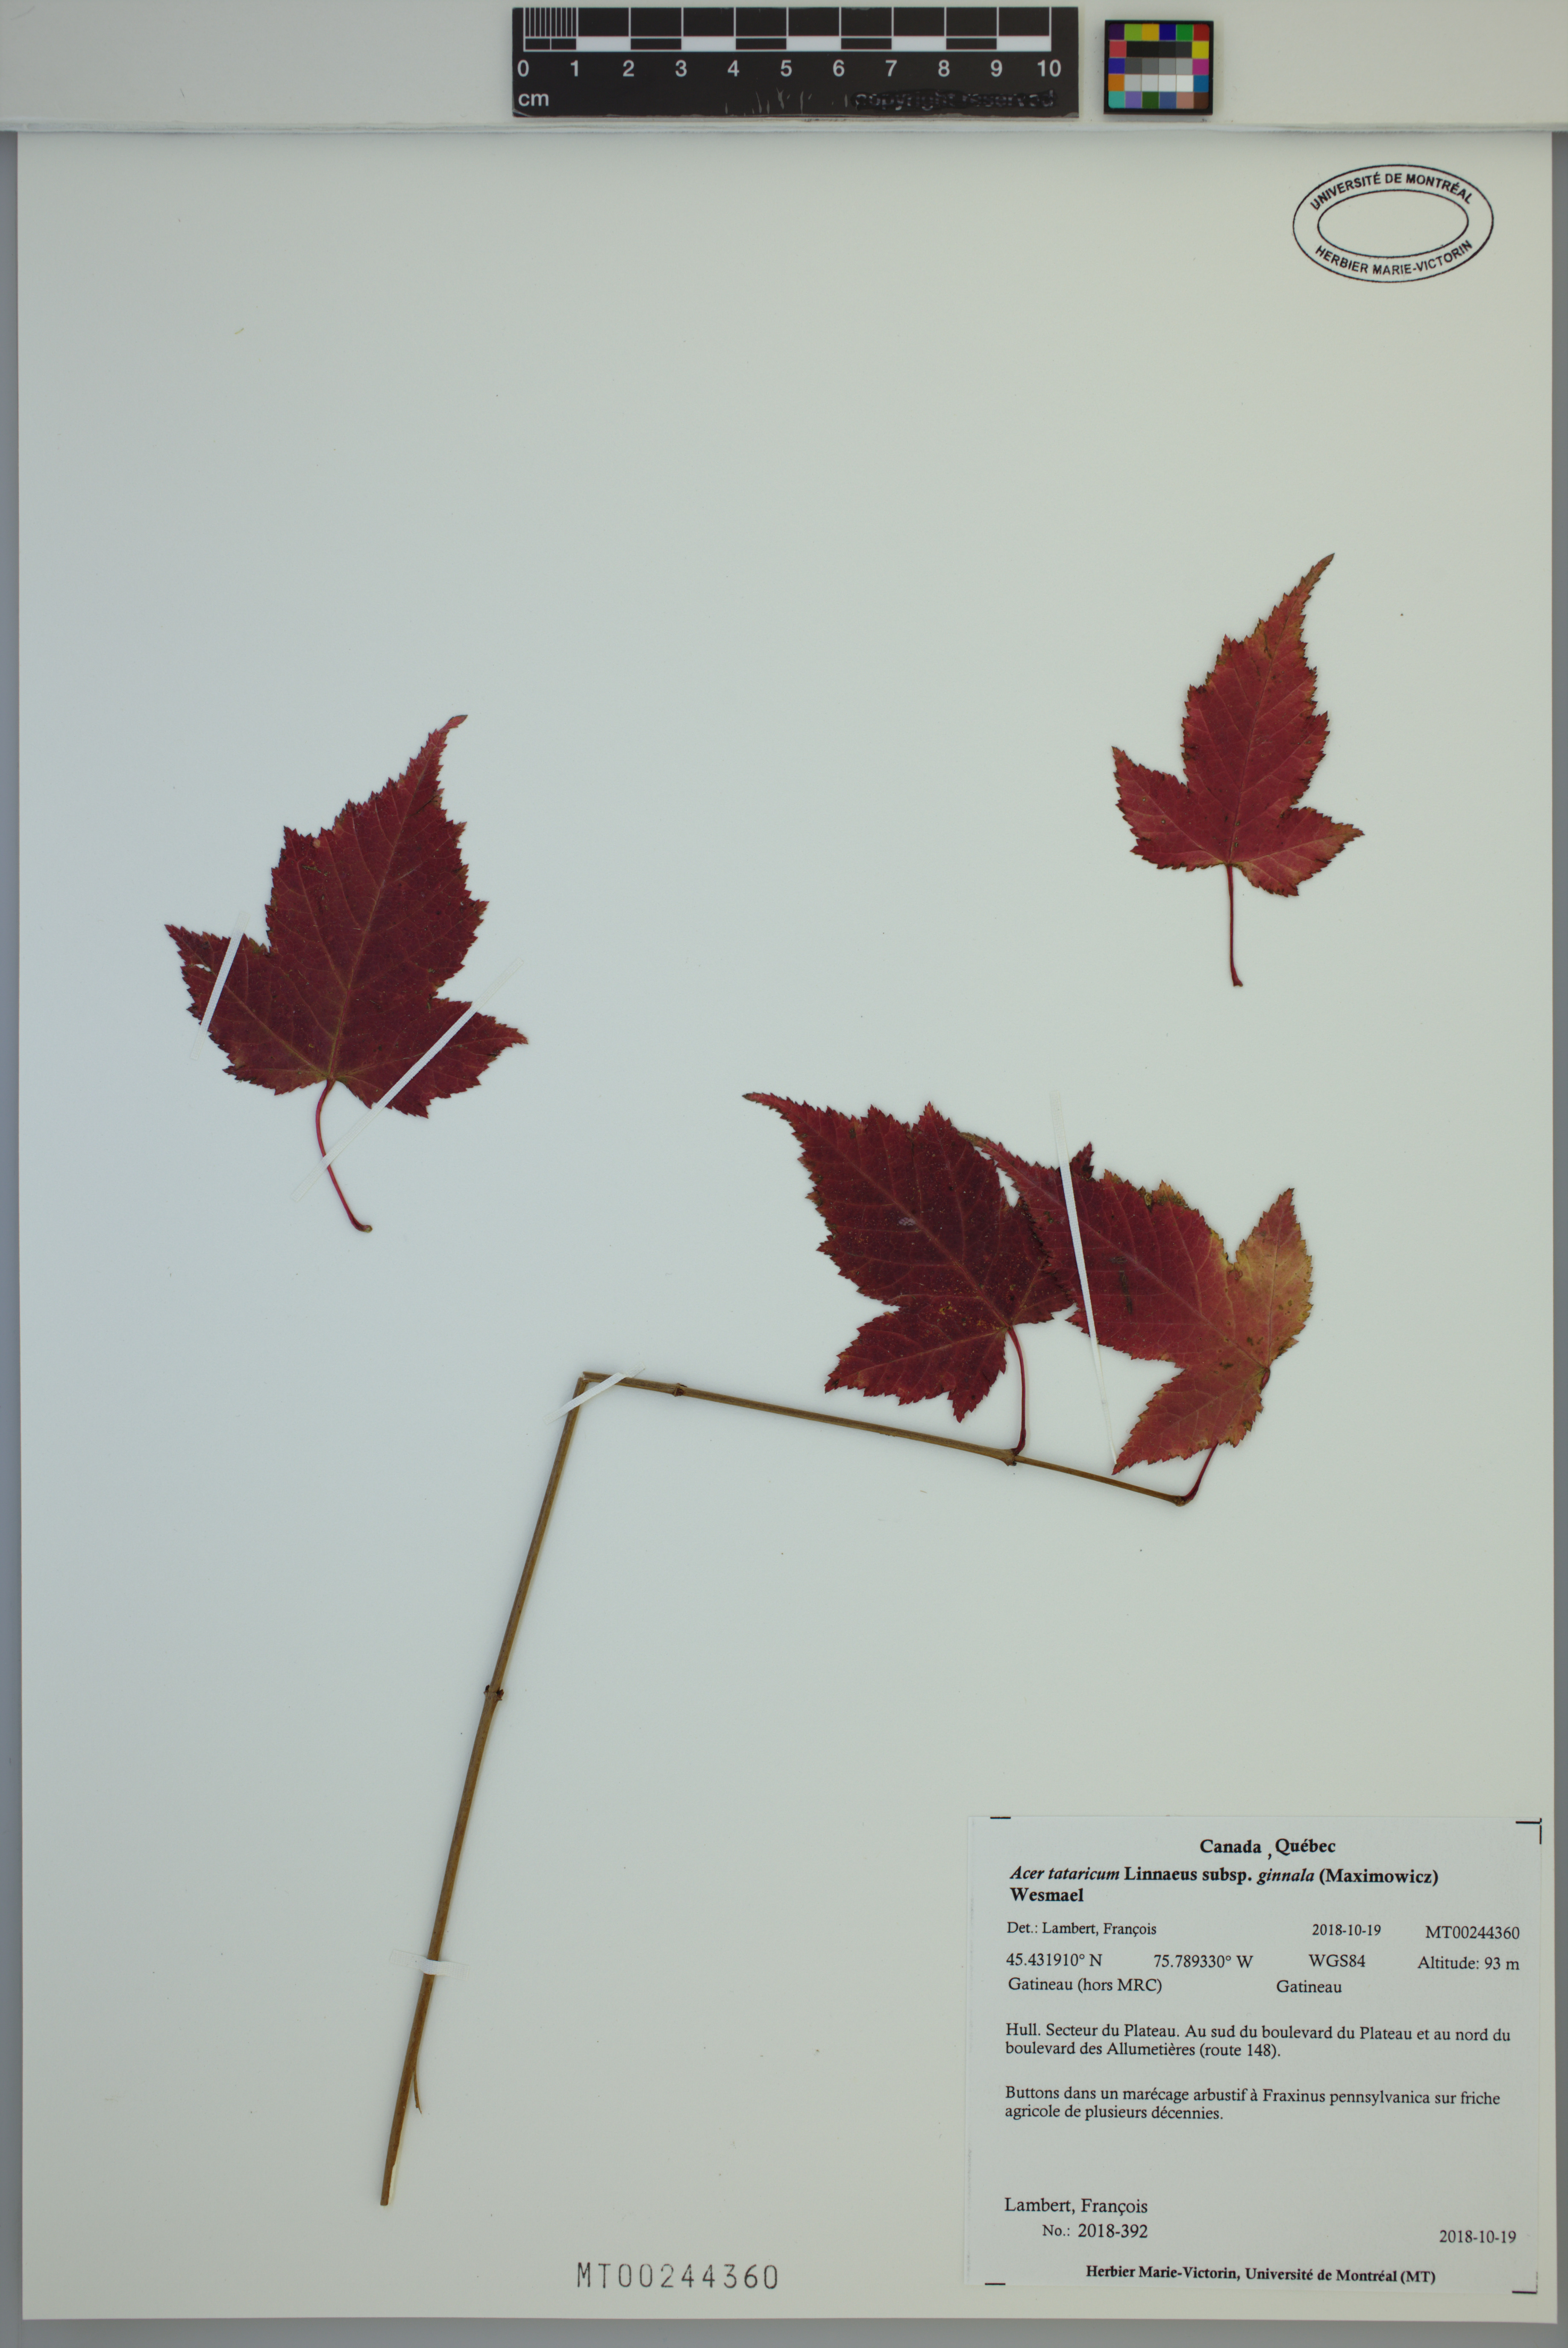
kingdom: Plantae
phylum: Tracheophyta
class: Magnoliopsida
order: Sapindales
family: Sapindaceae
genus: Acer
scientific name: Acer tataricum
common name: Tartar maple
